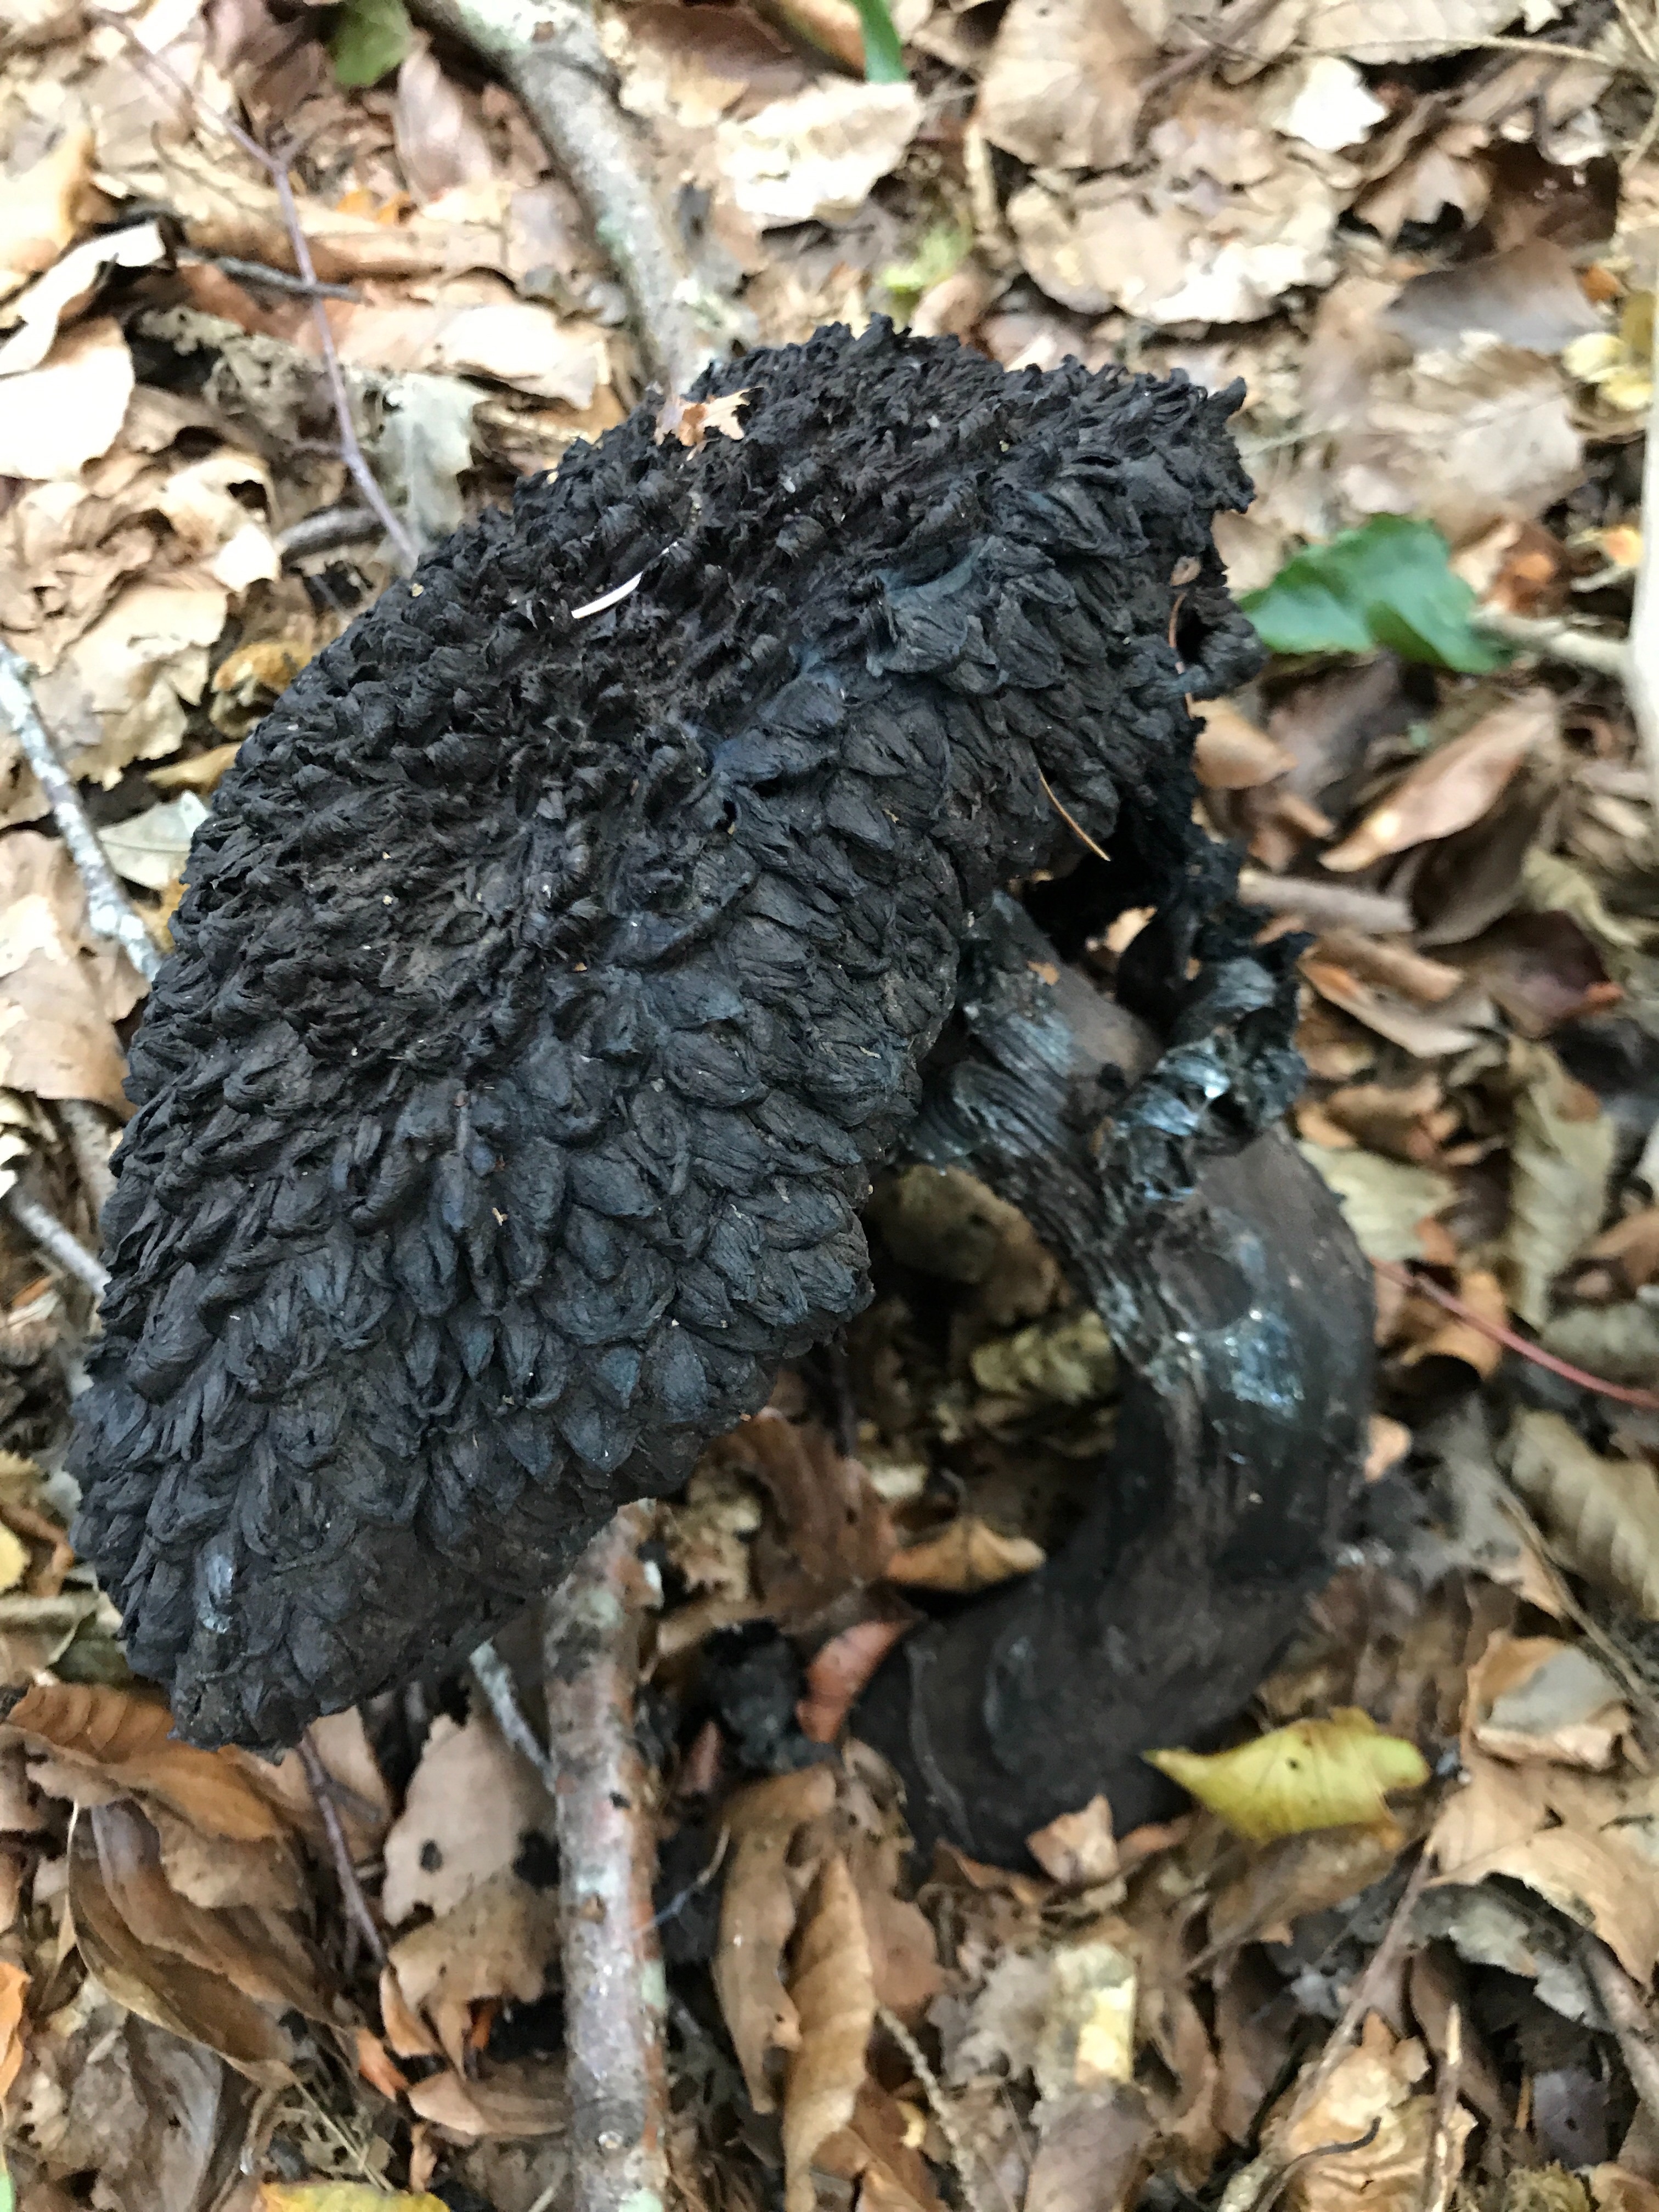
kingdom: Fungi
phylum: Basidiomycota
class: Agaricomycetes
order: Boletales
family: Boletaceae
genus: Strobilomyces
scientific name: Strobilomyces strobilaceus
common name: koglerørhat
